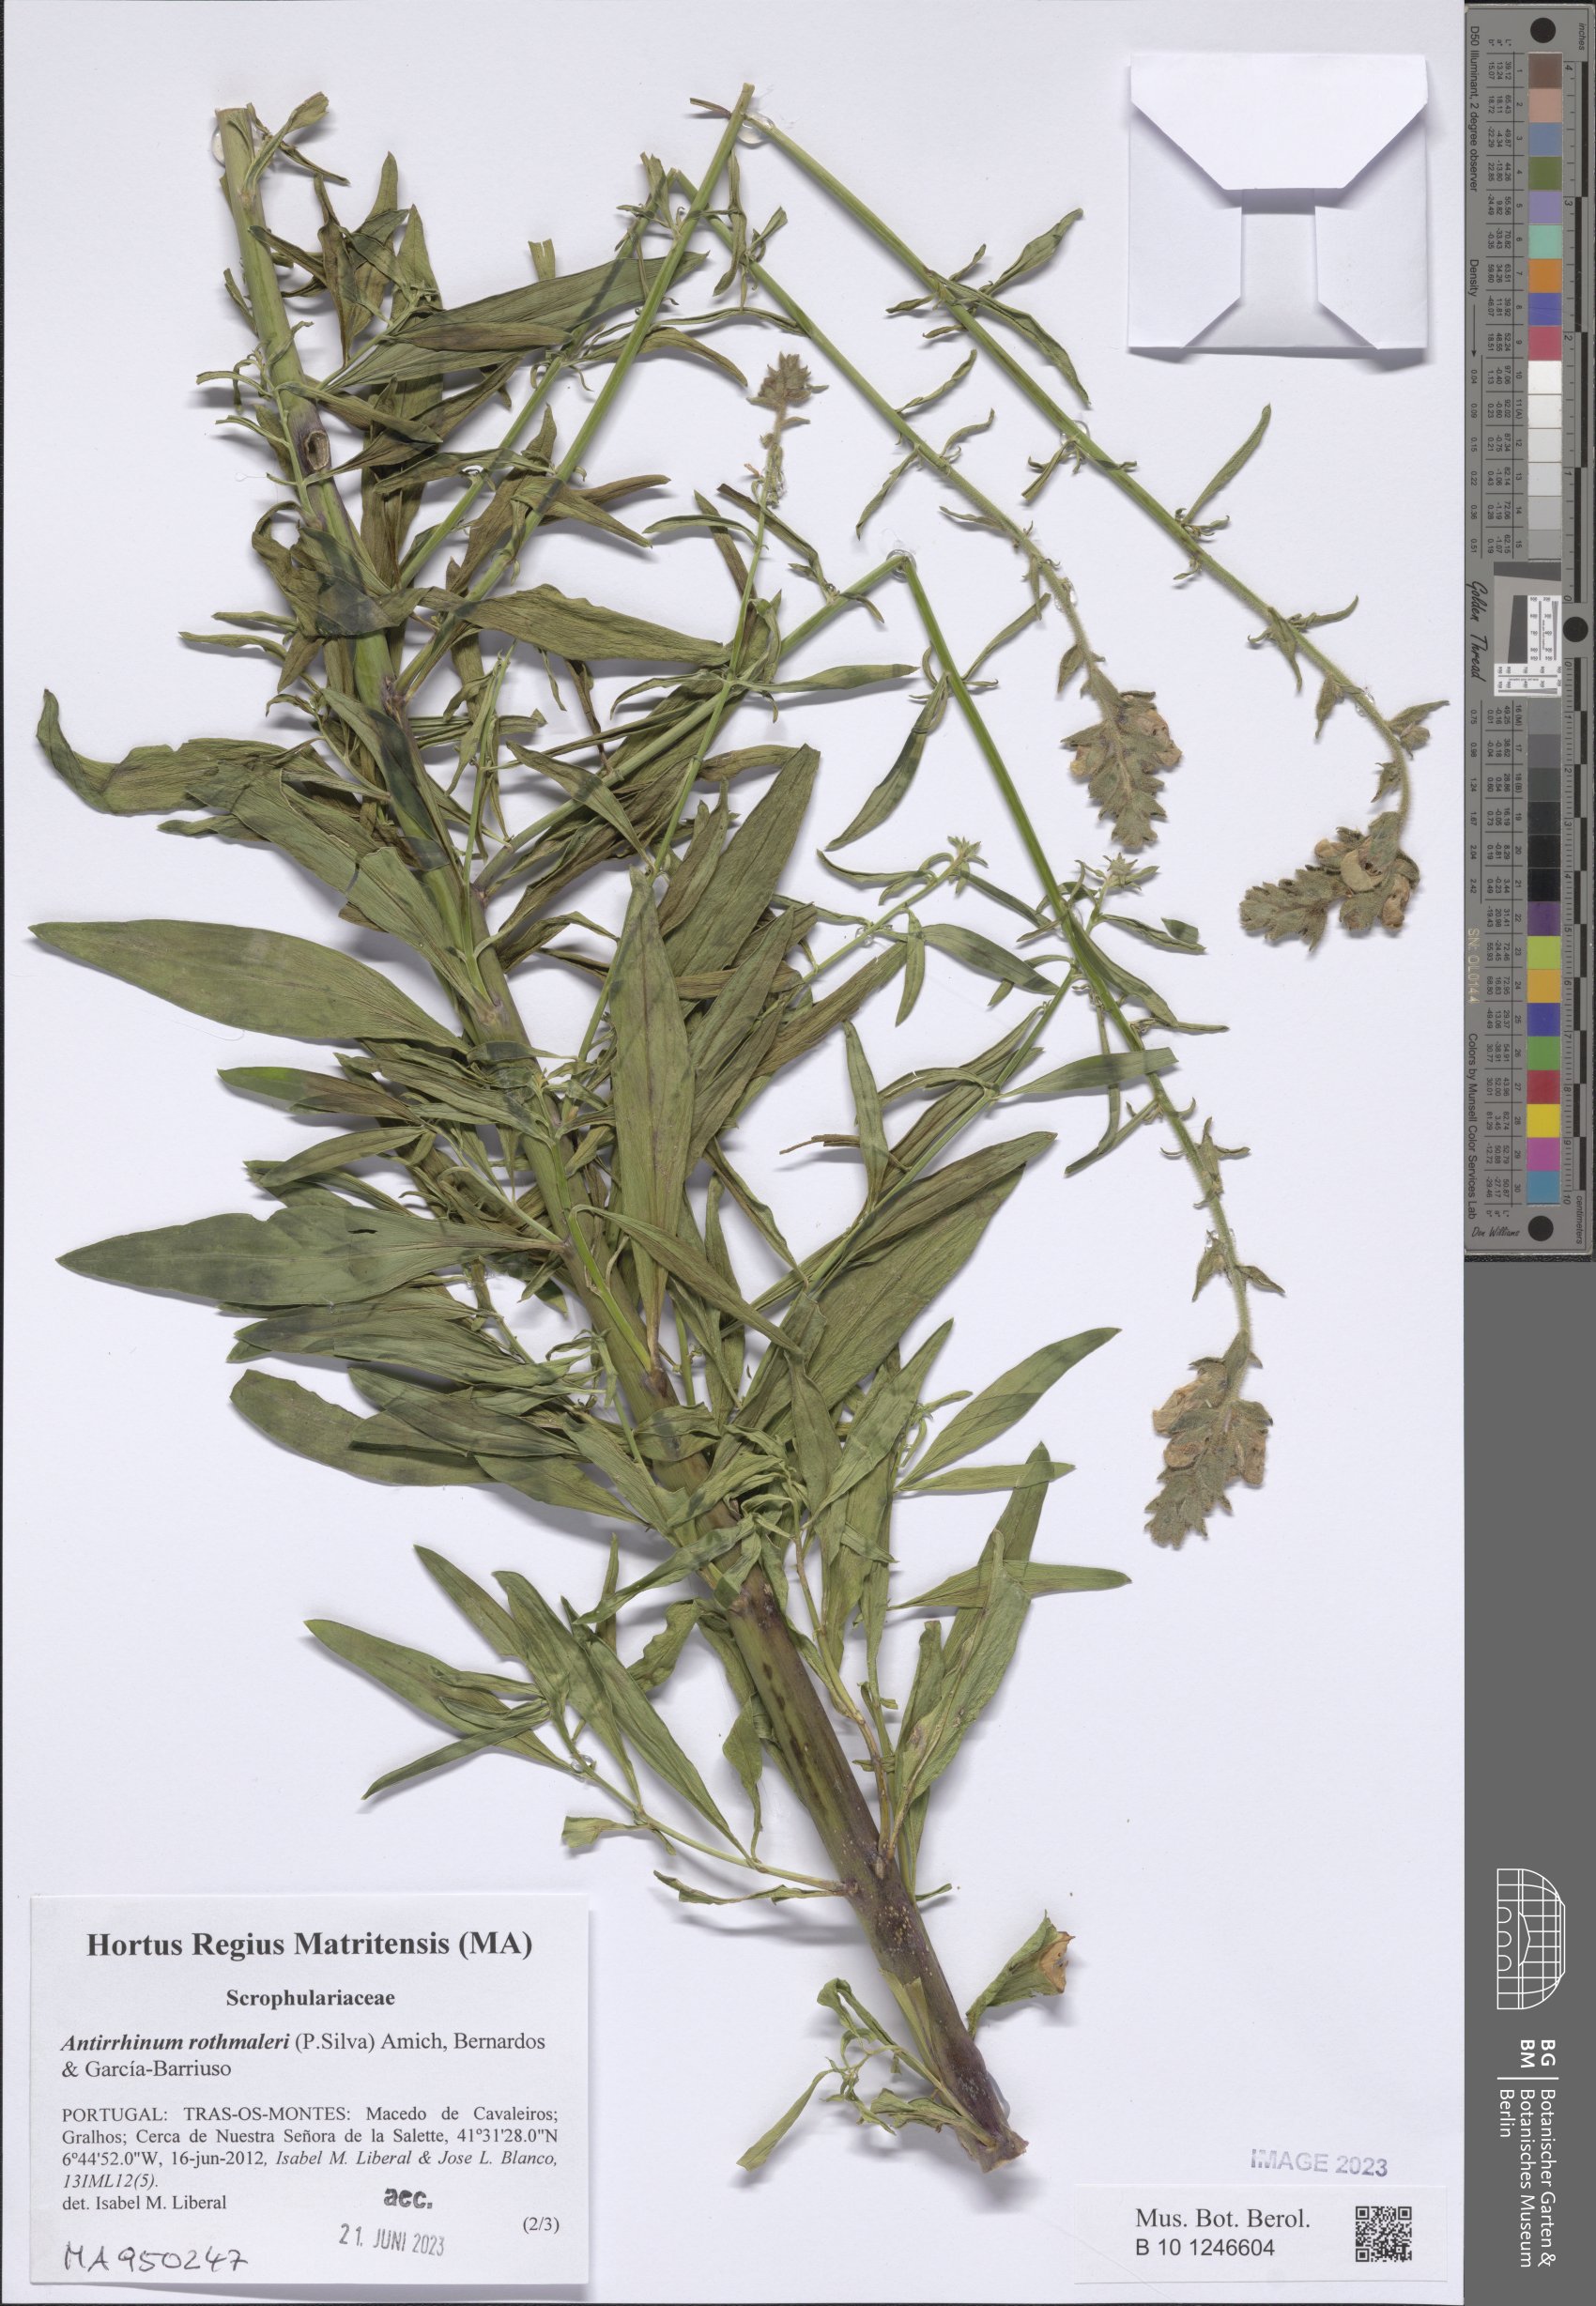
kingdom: Plantae
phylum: Tracheophyta
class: Magnoliopsida
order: Lamiales
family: Plantaginaceae
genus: Antirrhinum
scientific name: Antirrhinum rothmaleri
